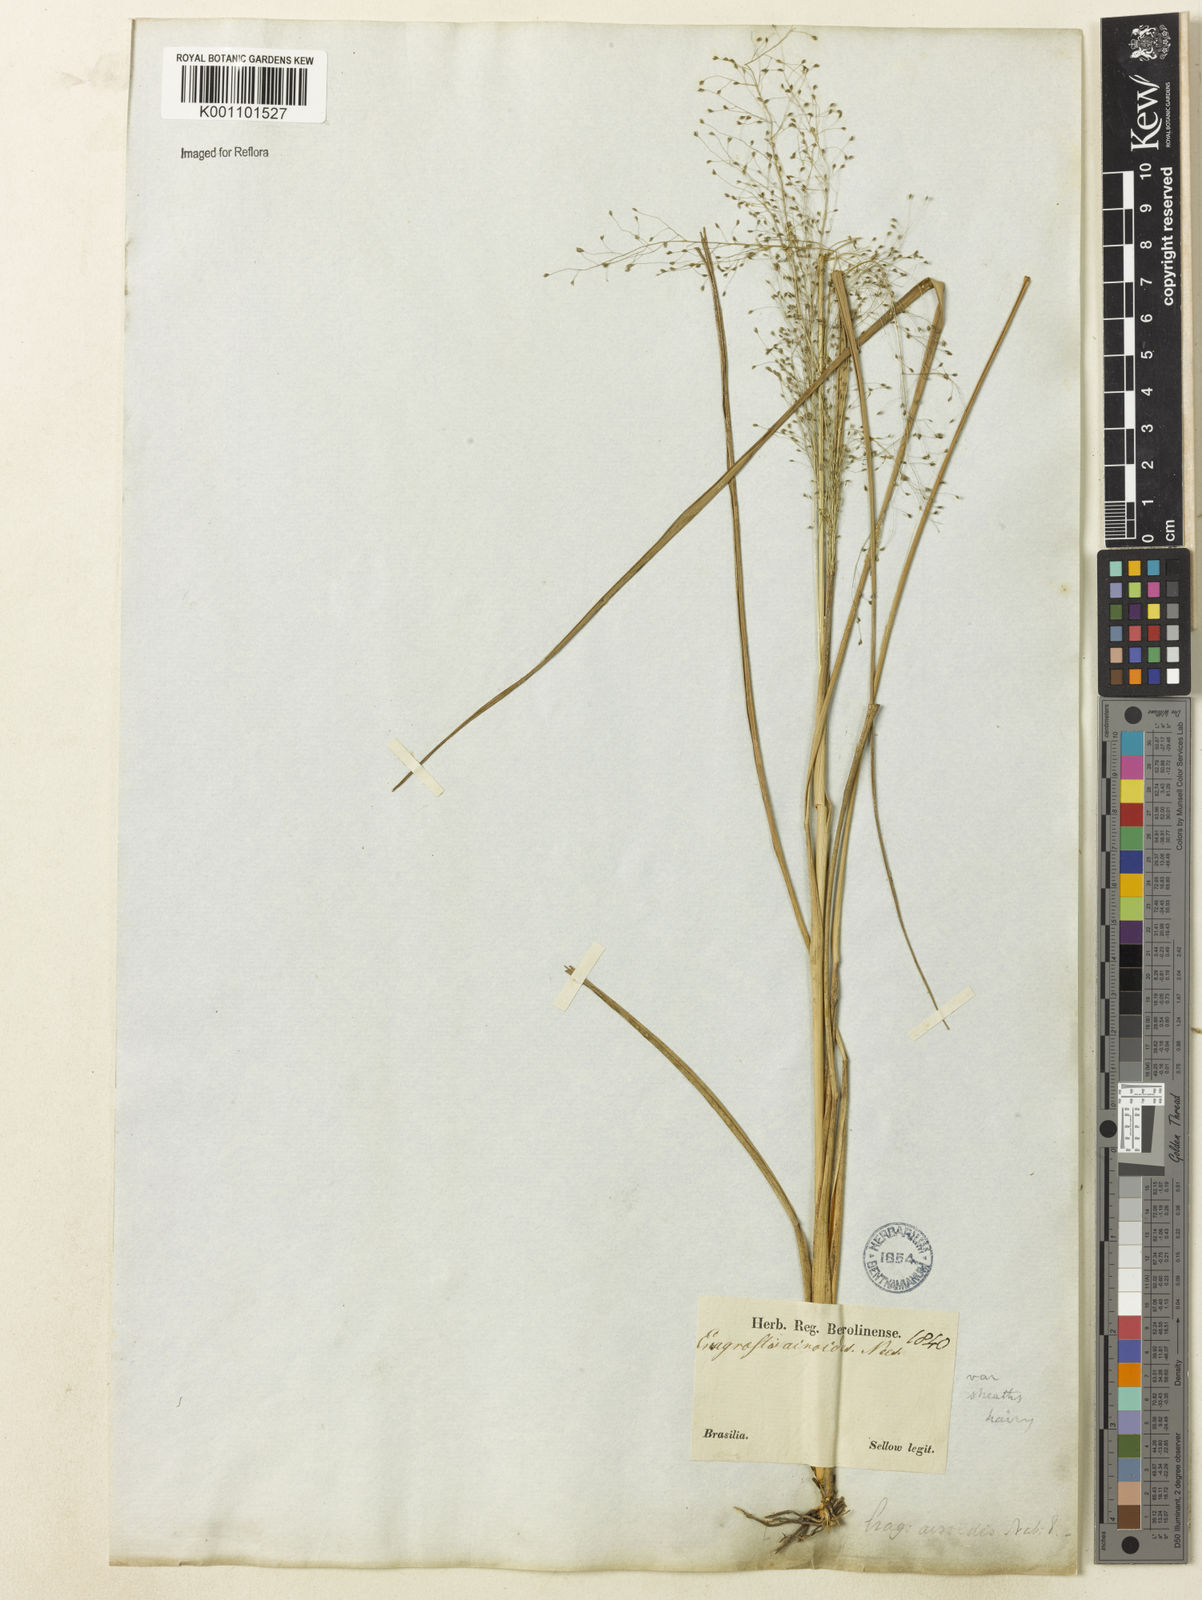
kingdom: Plantae
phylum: Tracheophyta
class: Liliopsida
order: Poales
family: Poaceae
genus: Eragrostis
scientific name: Eragrostis airoides
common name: Darnel lovegrass
